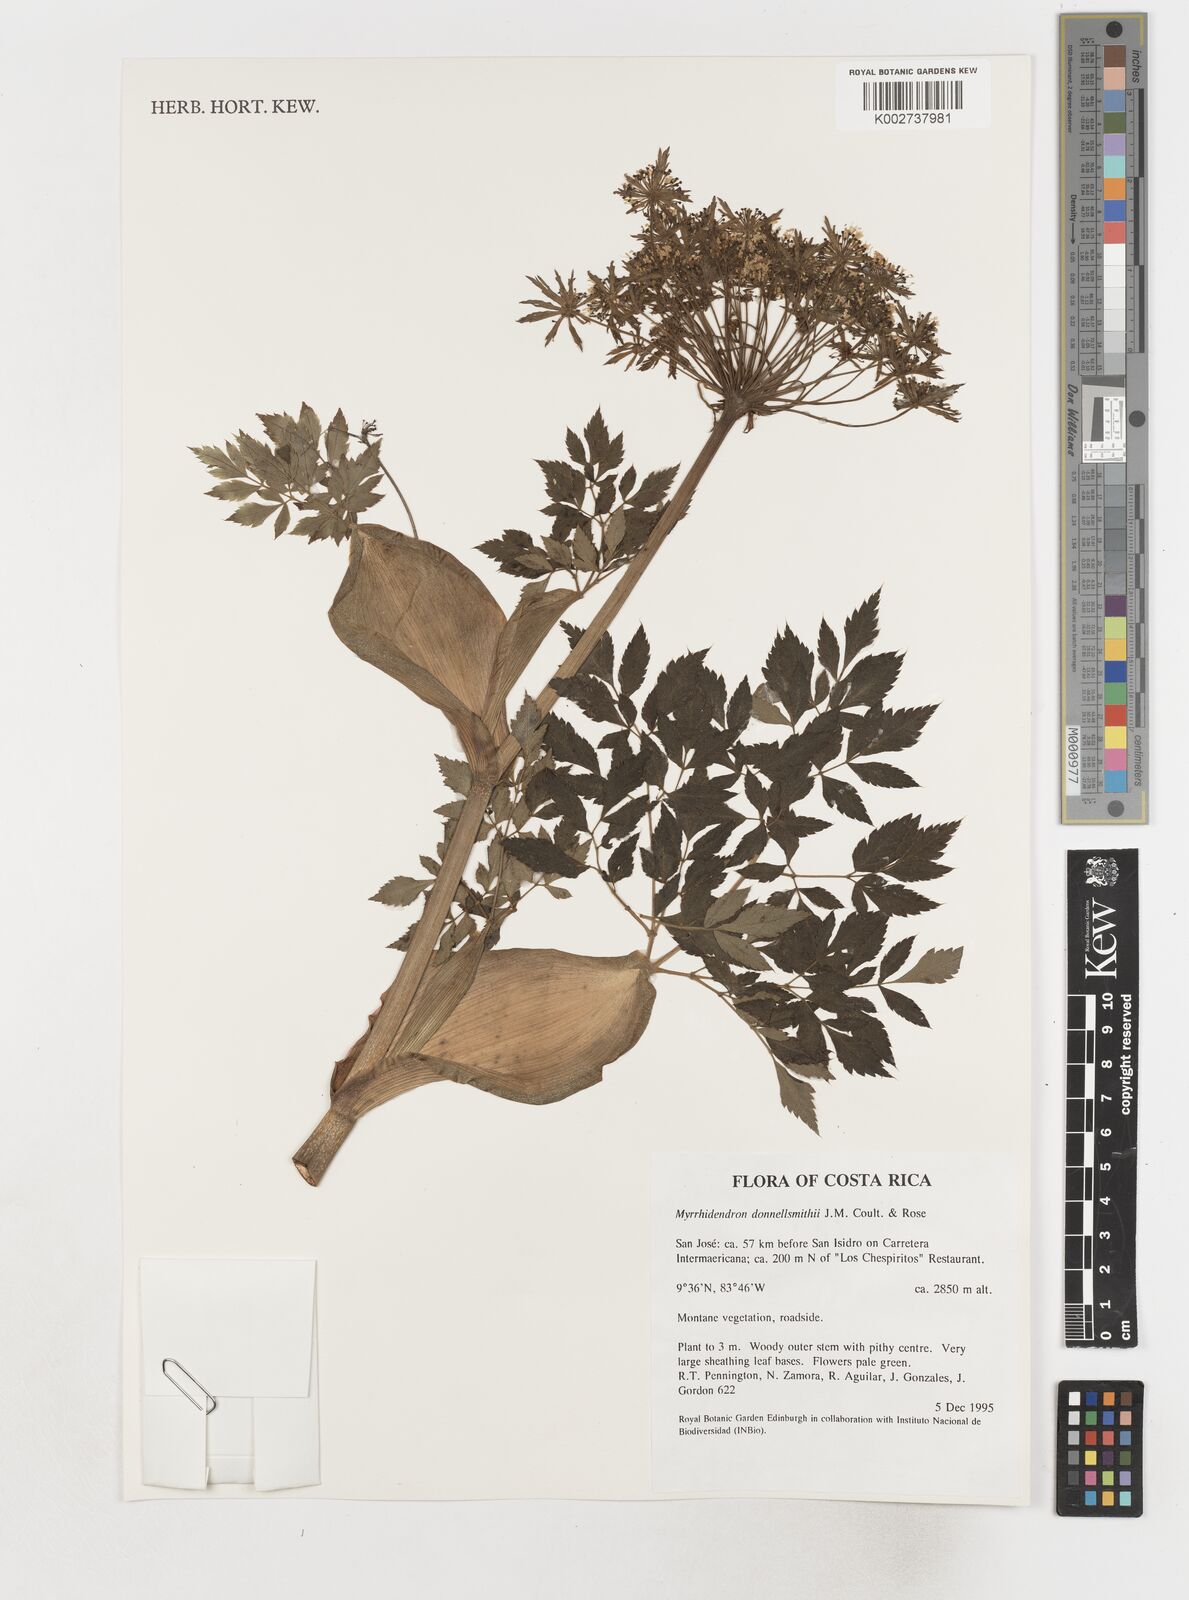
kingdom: Plantae
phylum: Tracheophyta
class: Magnoliopsida
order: Apiales
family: Apiaceae
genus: Myrrhidendron
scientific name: Myrrhidendron donnellsmithii
